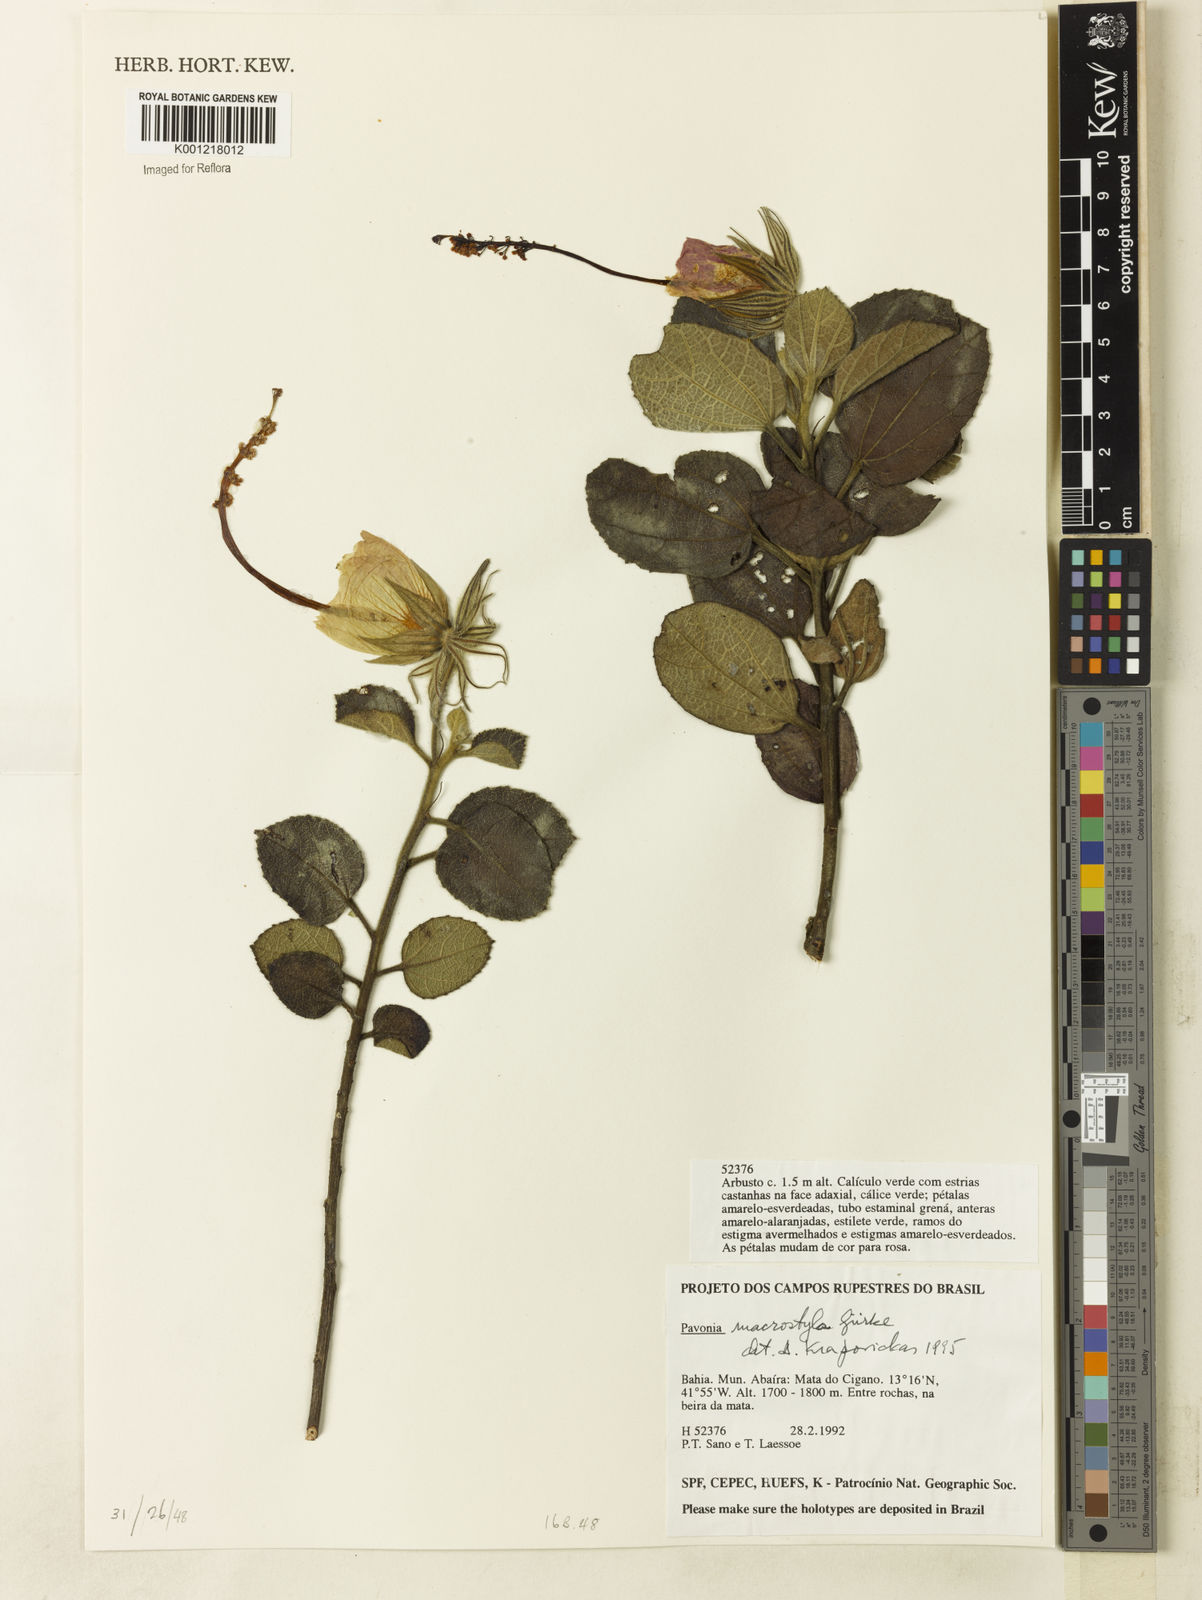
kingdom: Plantae
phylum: Tracheophyta
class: Magnoliopsida
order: Malvales
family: Malvaceae
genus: Pavonia
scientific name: Pavonia
